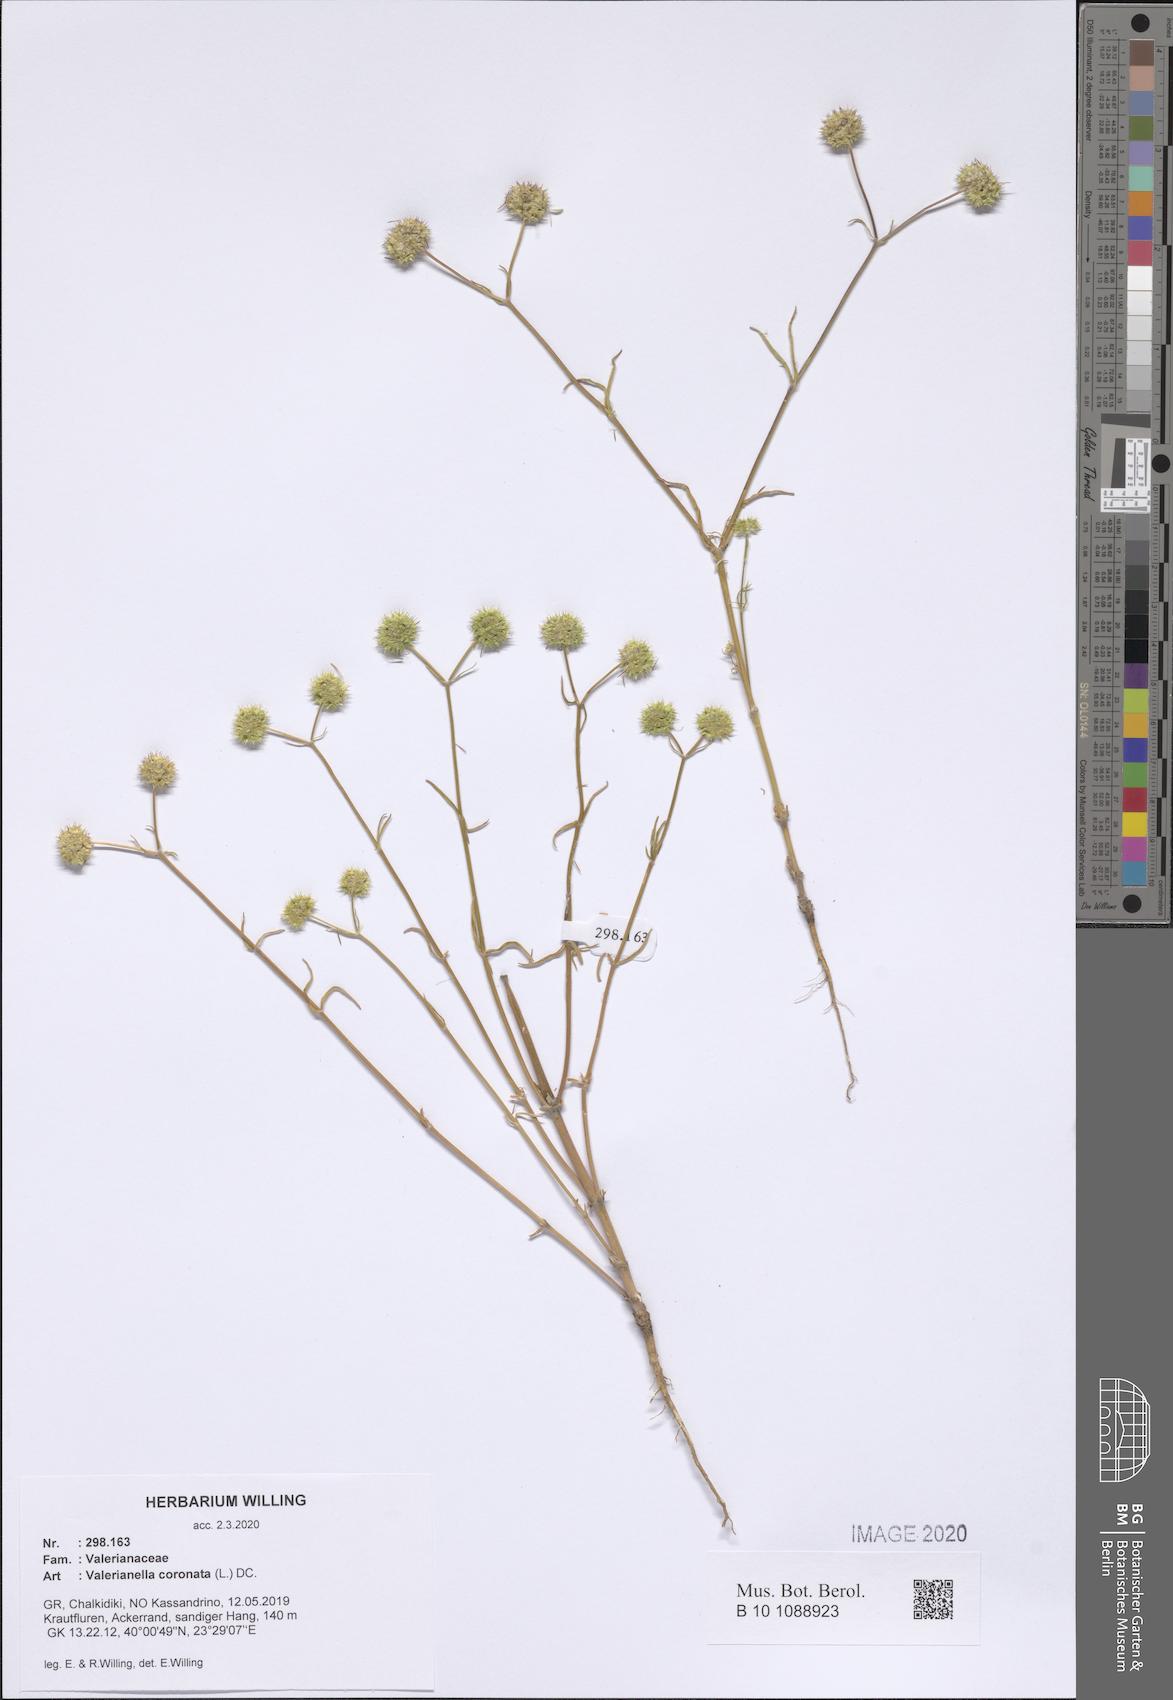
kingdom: Plantae
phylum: Tracheophyta
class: Magnoliopsida
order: Dipsacales
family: Caprifoliaceae
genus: Valerianella
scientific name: Valerianella coronata
